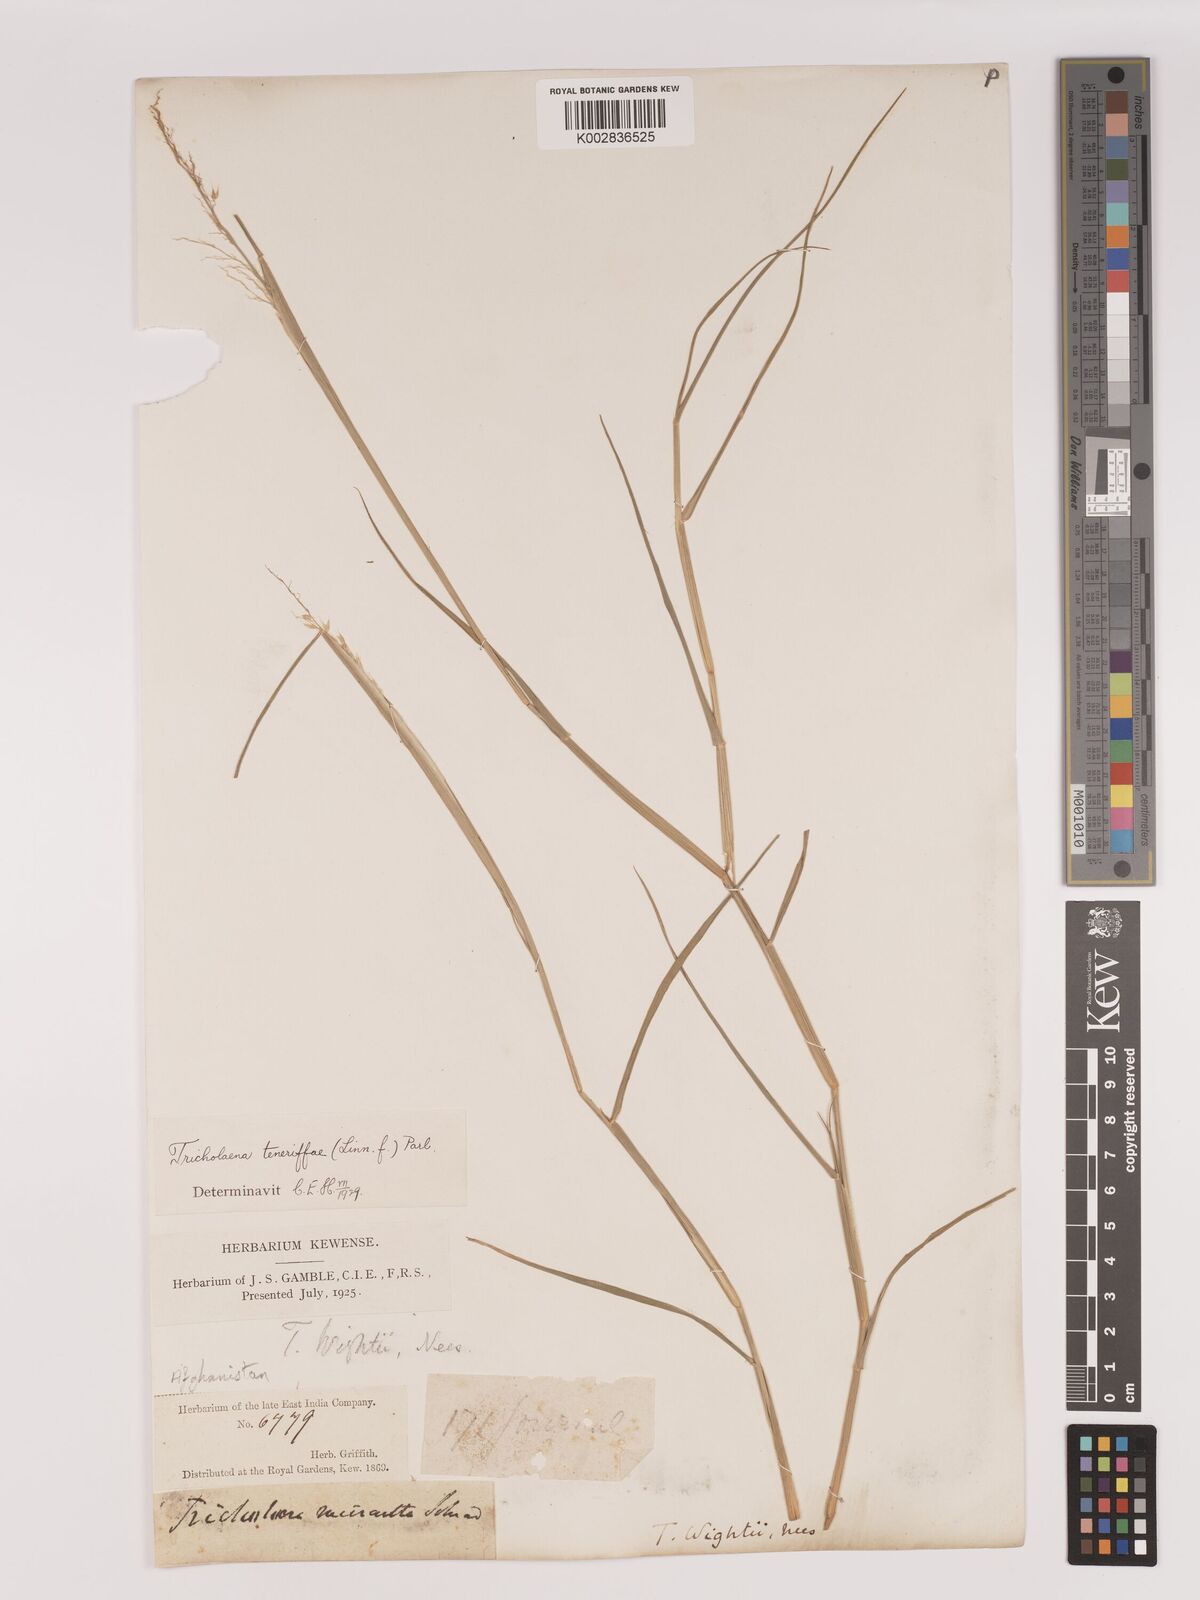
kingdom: Plantae
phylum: Tracheophyta
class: Liliopsida
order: Poales
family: Poaceae
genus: Tricholaena
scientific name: Tricholaena teneriffae
